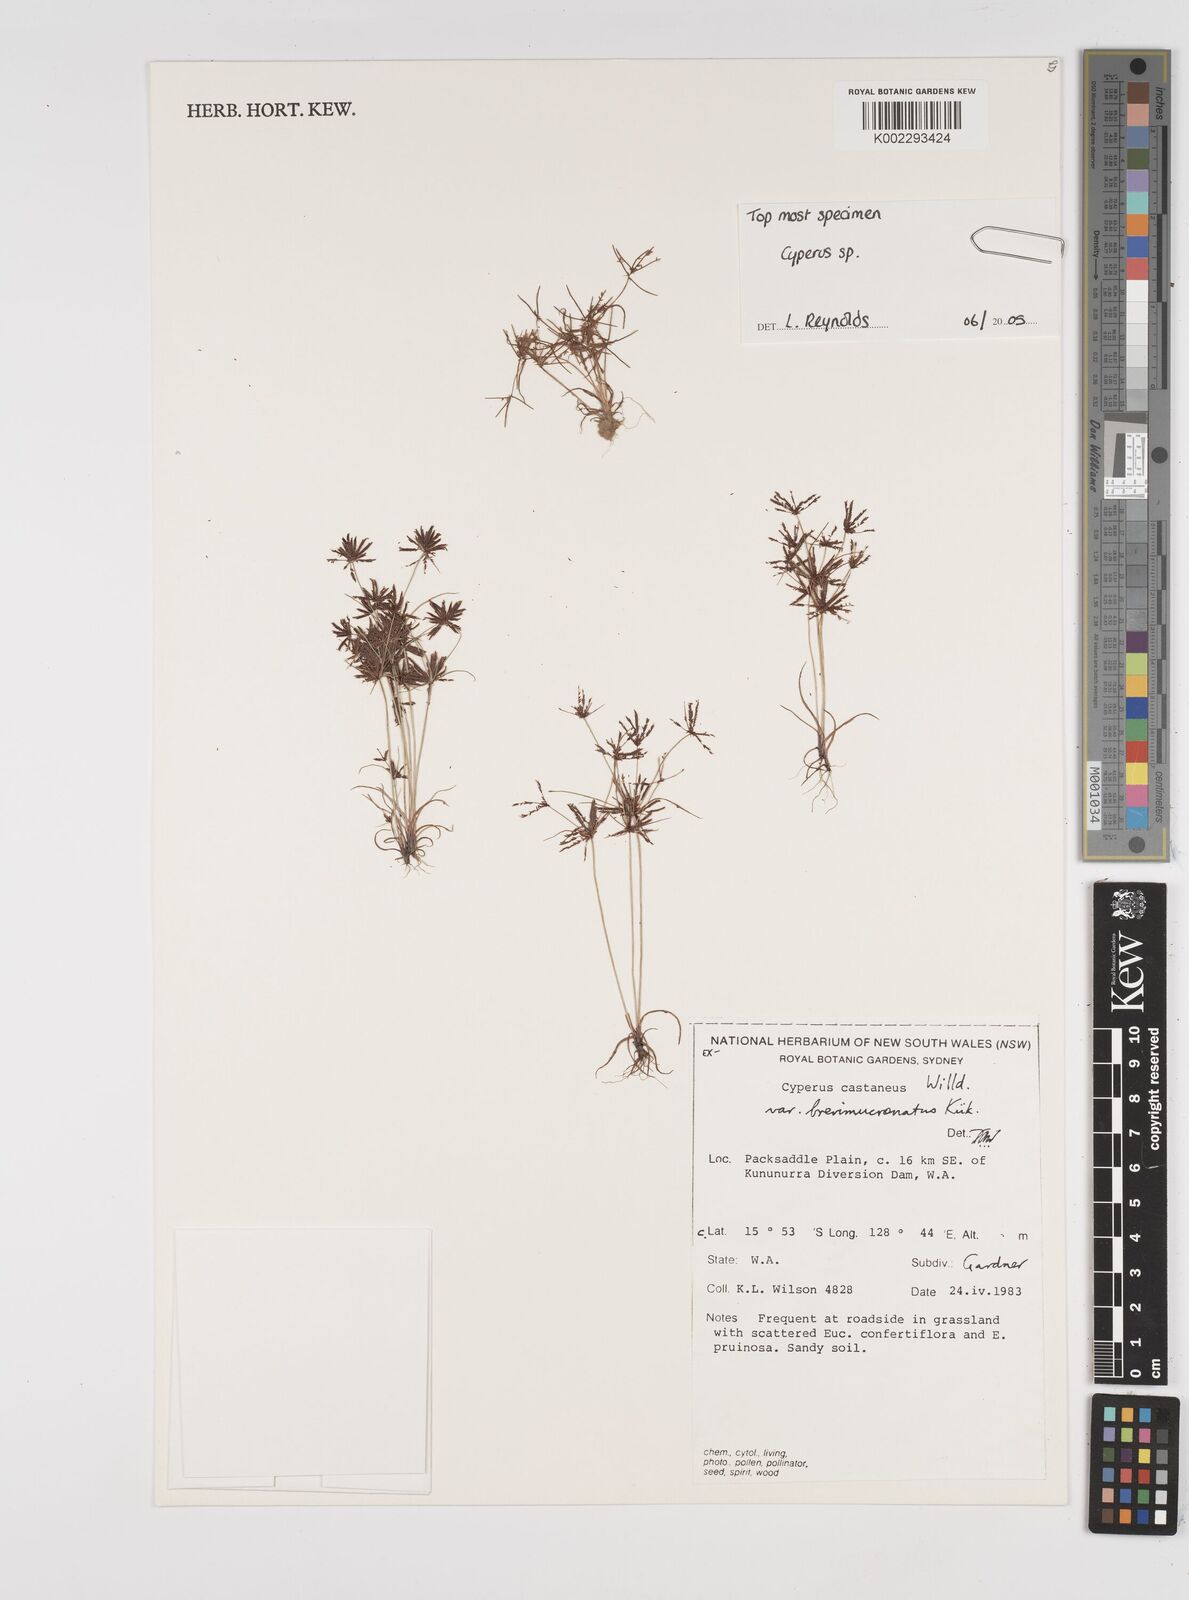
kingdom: Plantae
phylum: Tracheophyta
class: Liliopsida
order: Poales
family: Cyperaceae
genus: Cyperus
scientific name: Cyperus castaneus
